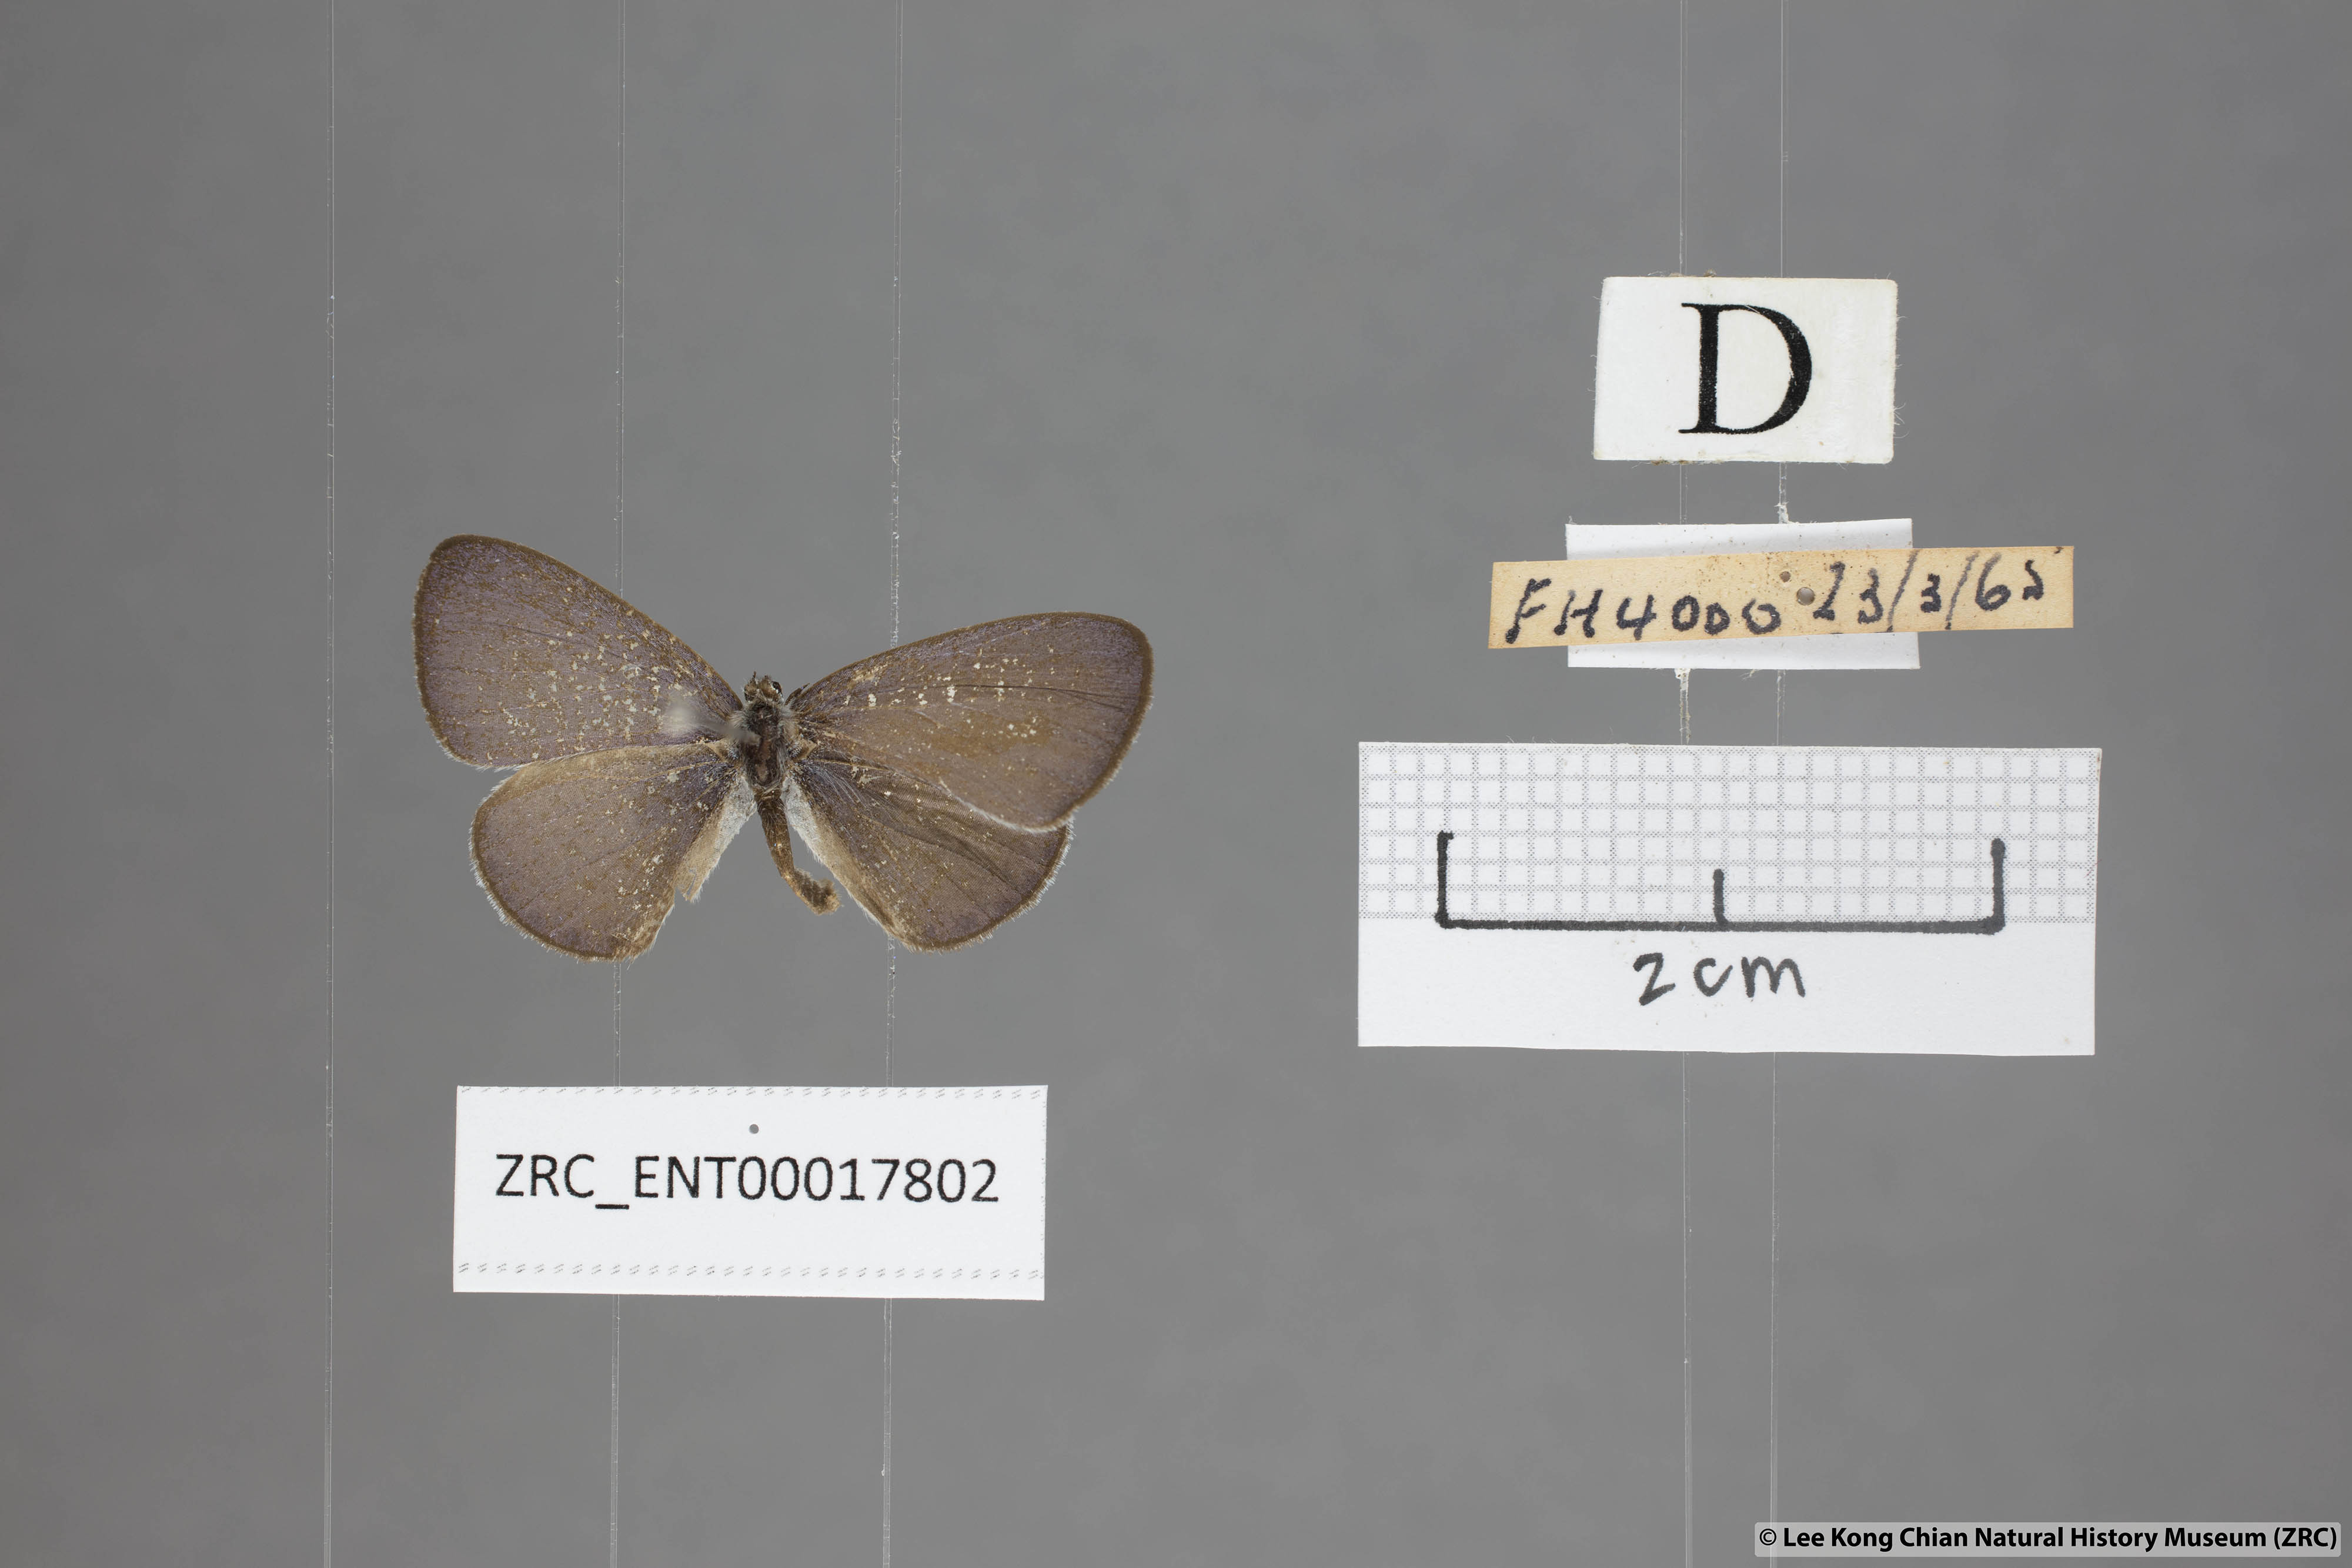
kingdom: Animalia
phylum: Arthropoda
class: Insecta
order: Lepidoptera
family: Lycaenidae
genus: Monodontides
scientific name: Monodontides
